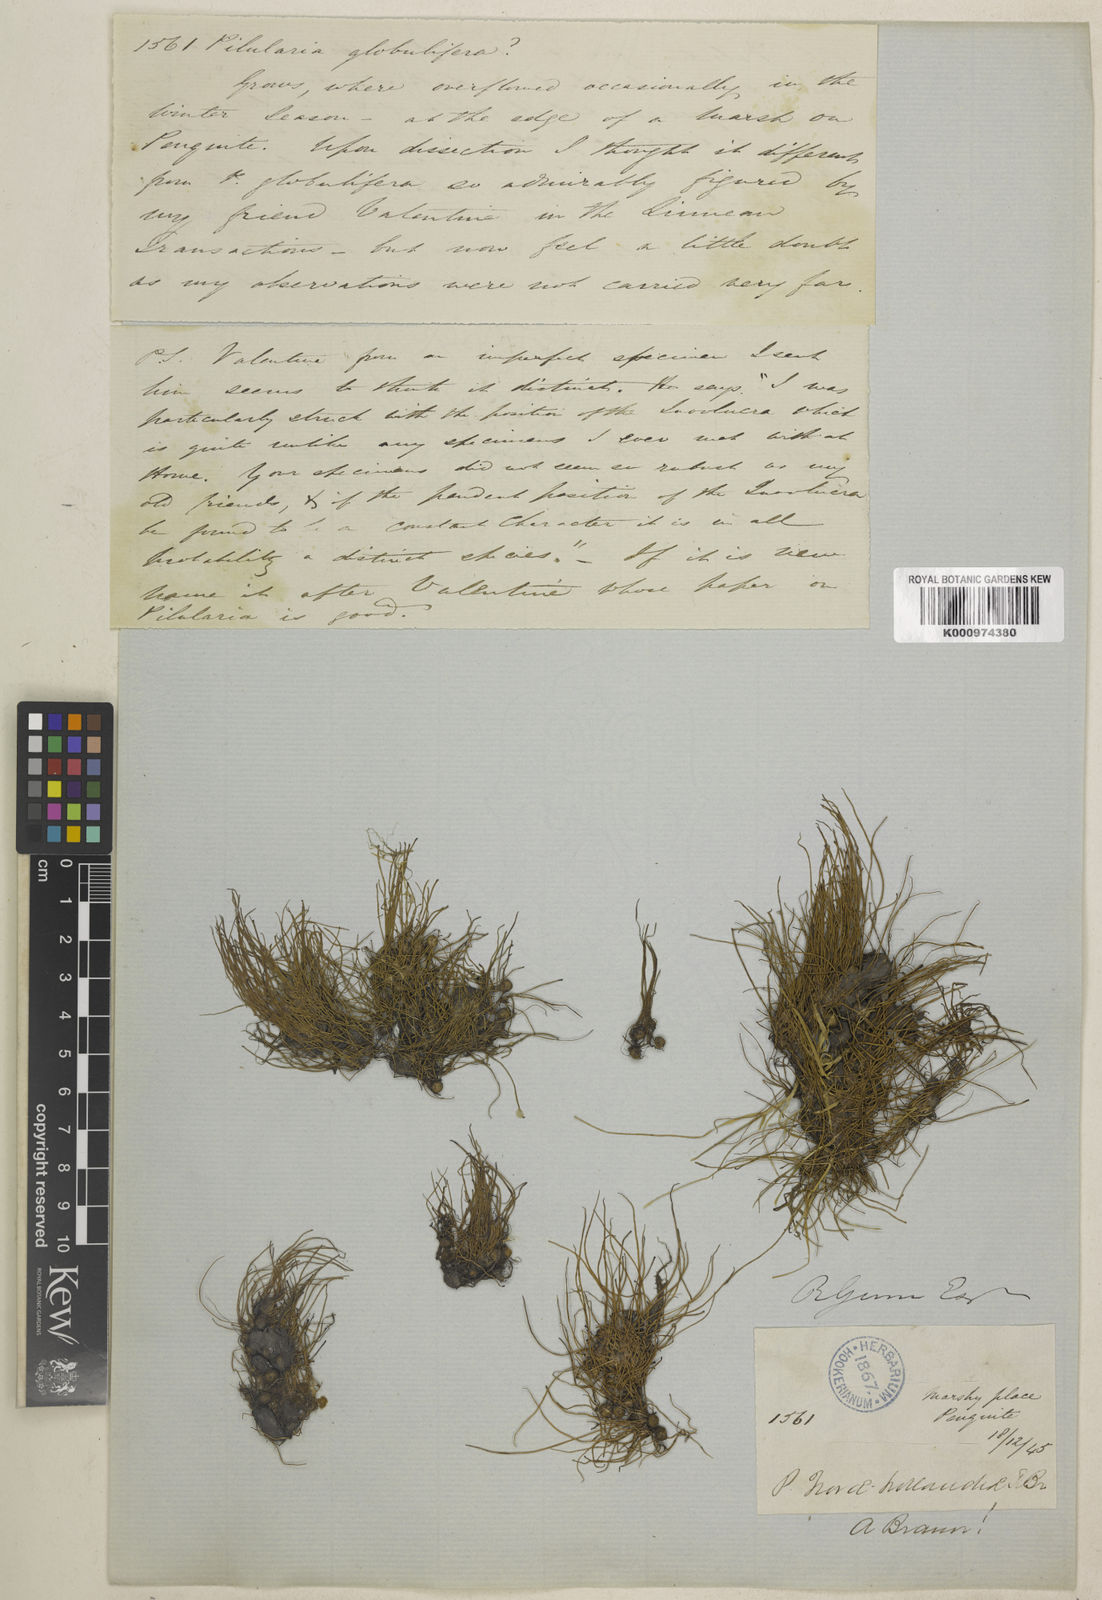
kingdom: Plantae
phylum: Tracheophyta
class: Polypodiopsida
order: Salviniales
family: Marsileaceae
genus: Pilularia
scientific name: Pilularia novae-hollandiae
